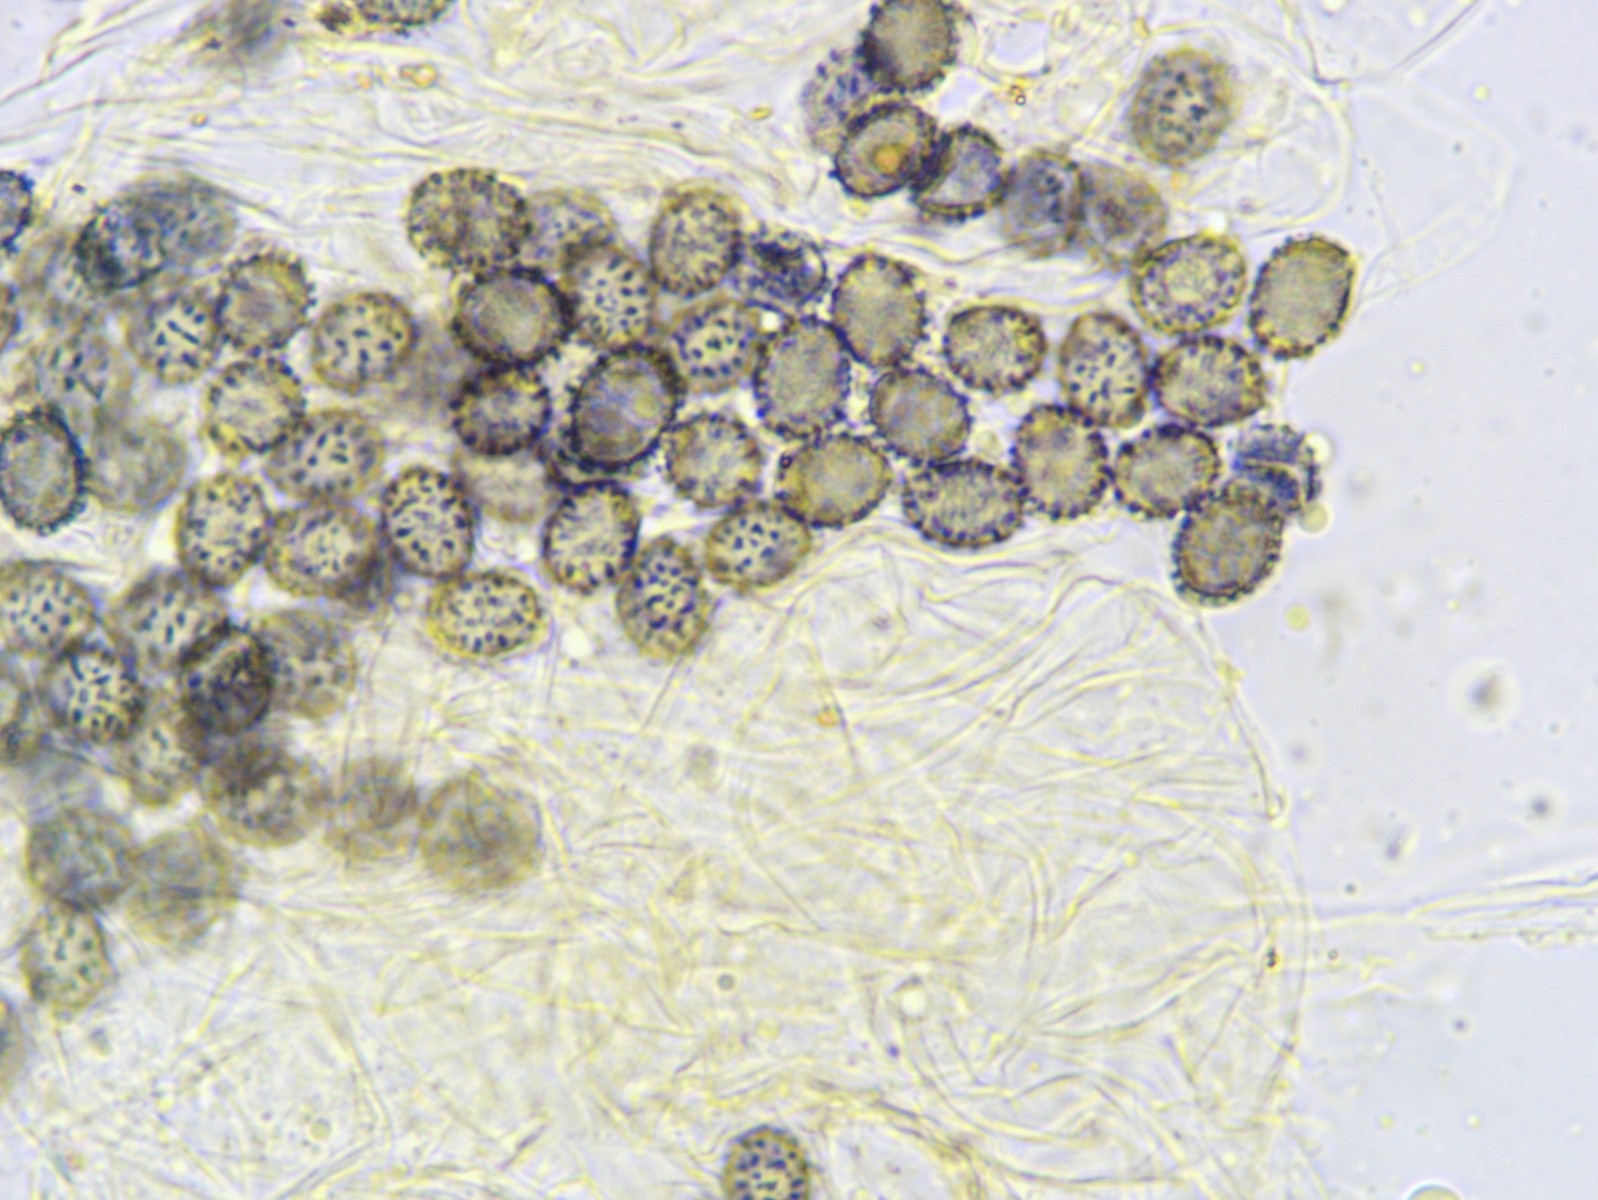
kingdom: Fungi
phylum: Basidiomycota
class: Agaricomycetes
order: Russulales
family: Russulaceae
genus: Russula
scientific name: Russula gracillima
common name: slank skørhat
